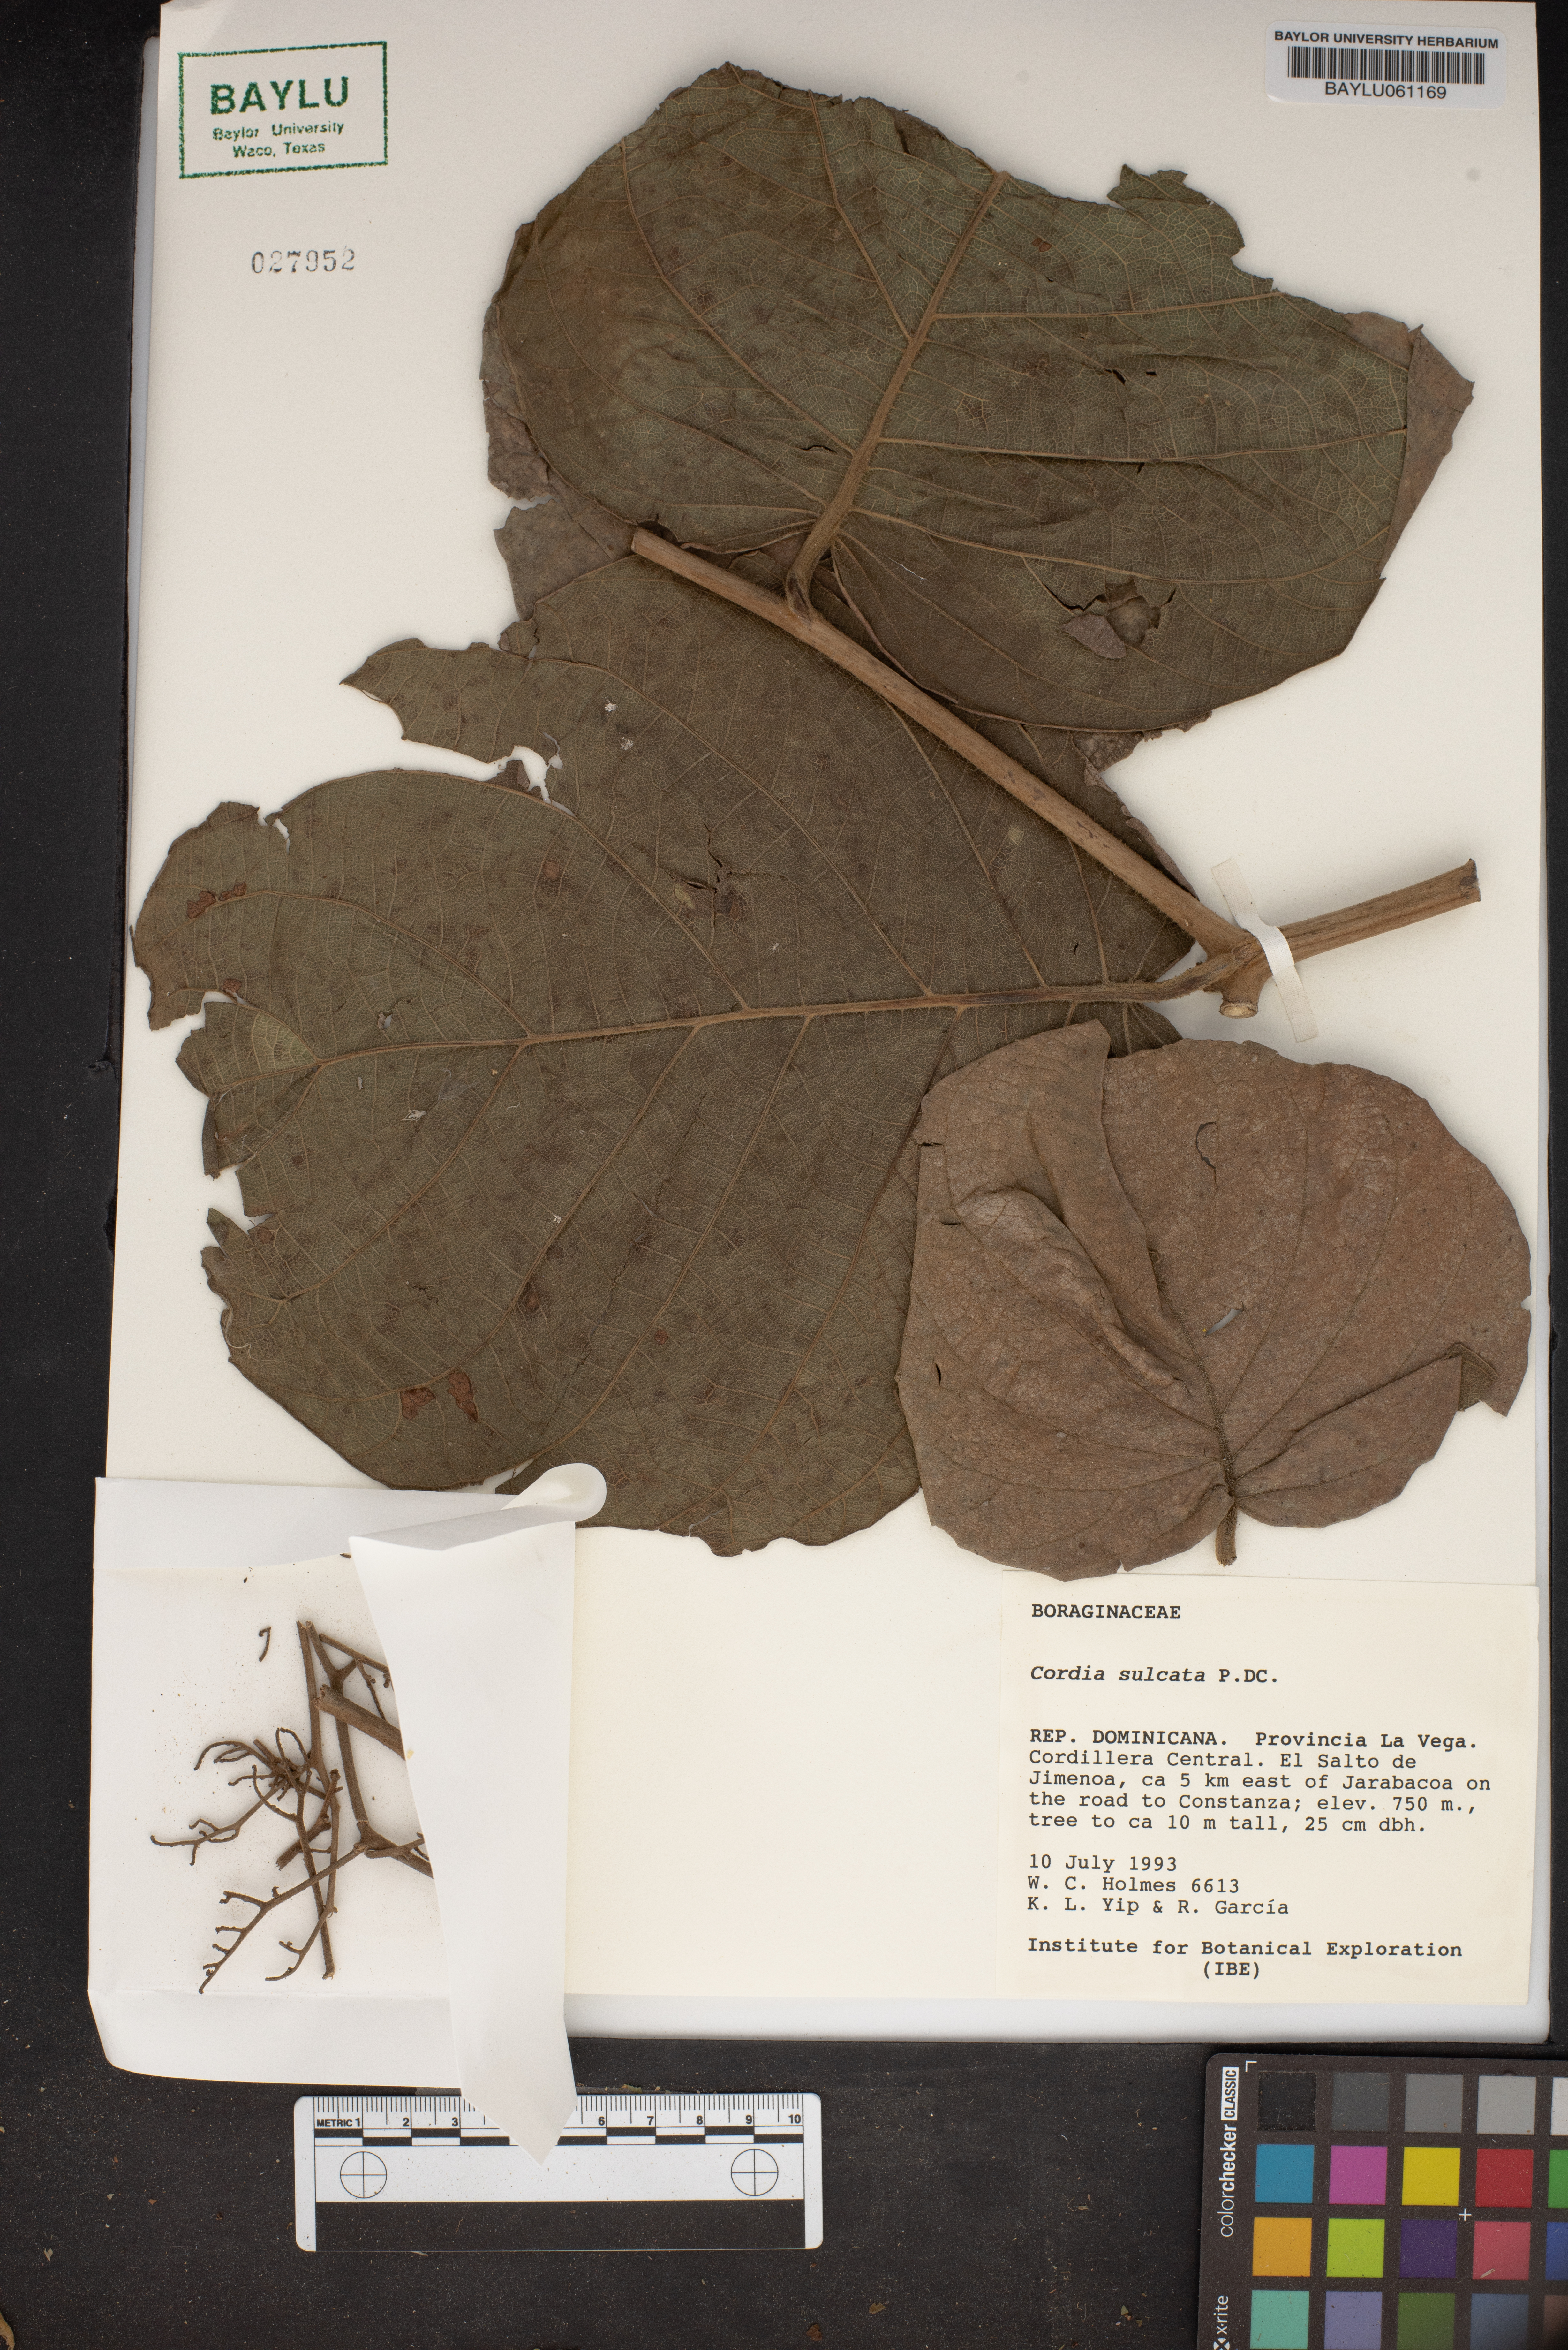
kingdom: Plantae
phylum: Tracheophyta
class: Magnoliopsida
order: Boraginales
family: Cordiaceae
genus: Cordia
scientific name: Cordia sulcata
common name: White manjack
